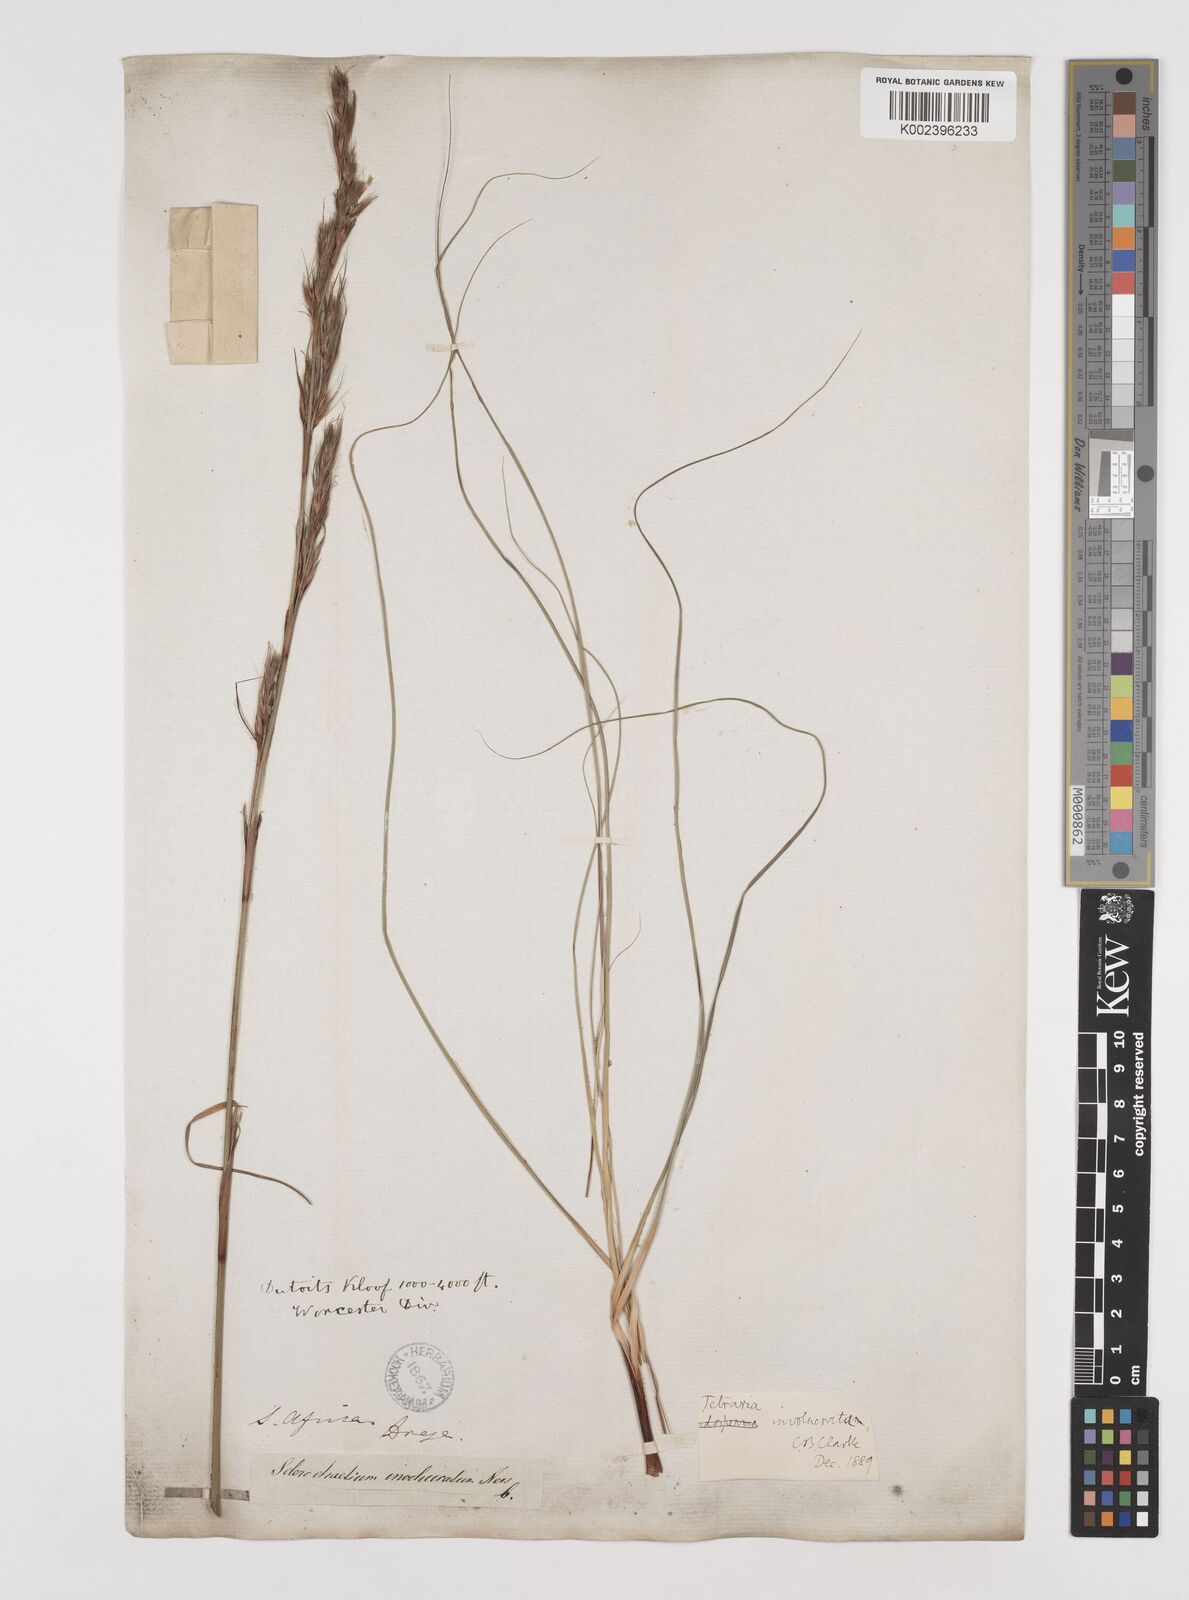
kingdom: Plantae
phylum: Tracheophyta
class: Liliopsida
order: Poales
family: Cyperaceae
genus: Tetraria
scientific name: Tetraria involucrata
